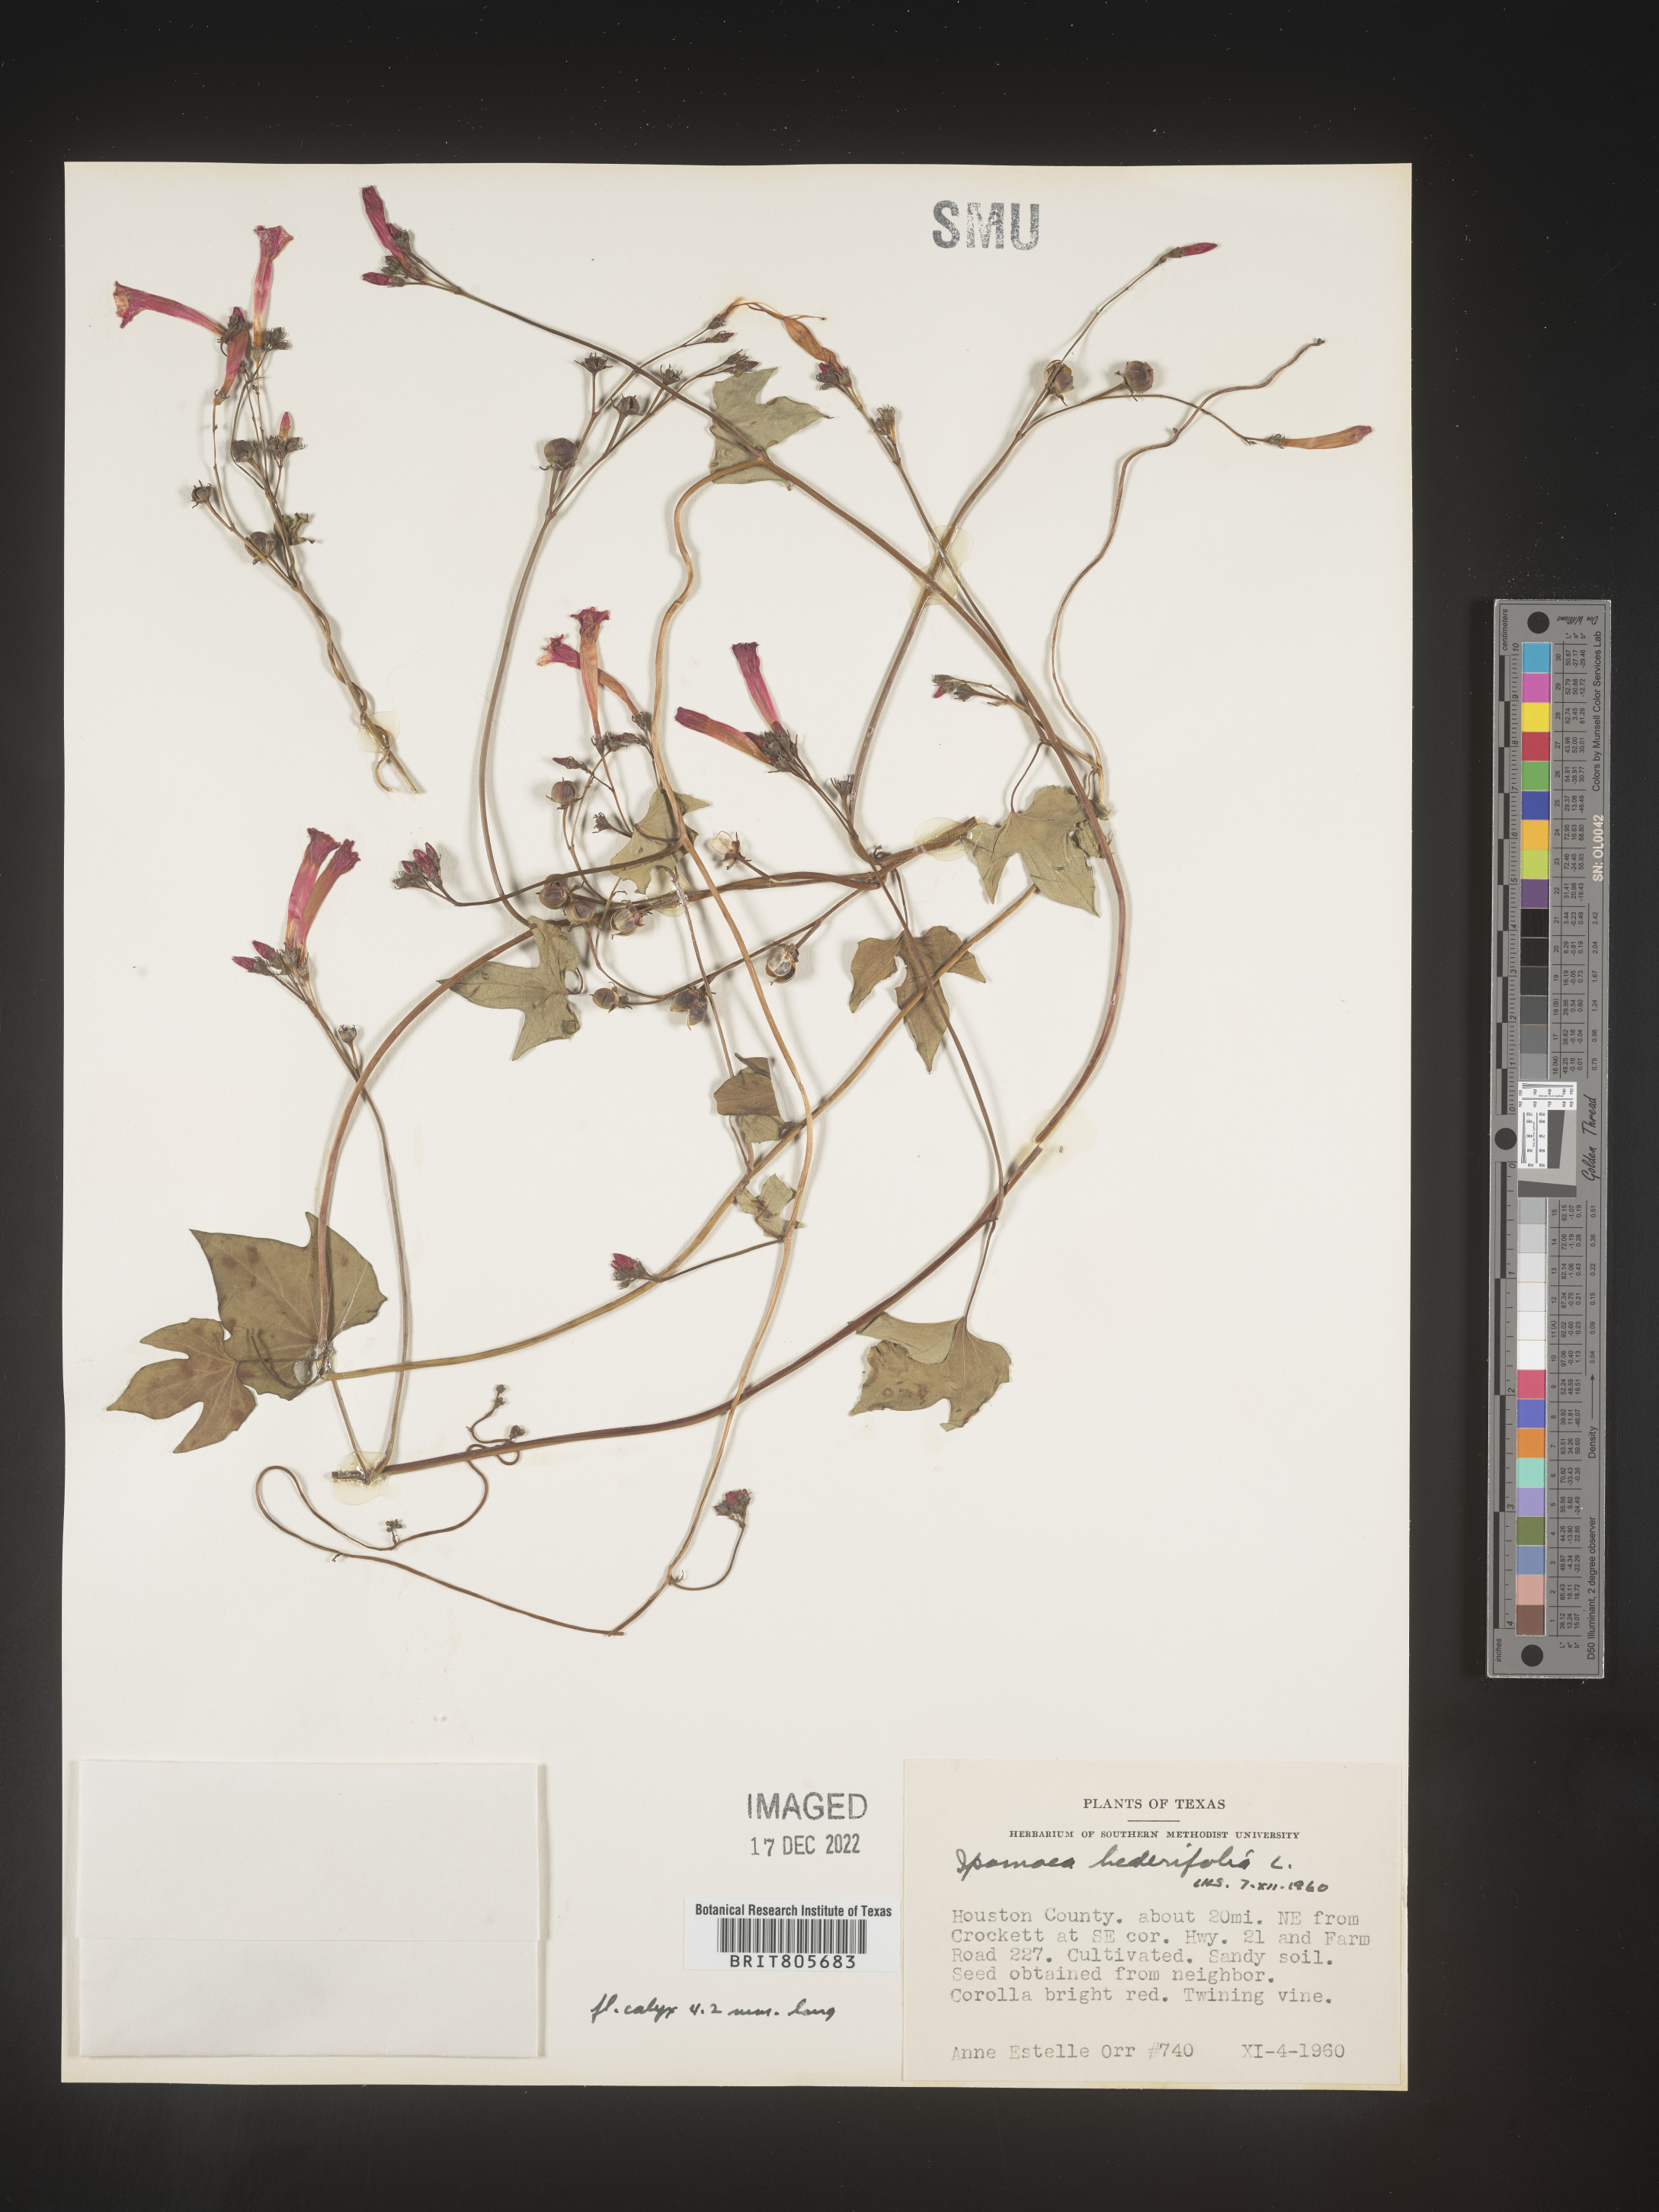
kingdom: Plantae
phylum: Tracheophyta
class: Magnoliopsida
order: Solanales
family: Convolvulaceae
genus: Ipomoea
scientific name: Ipomoea
